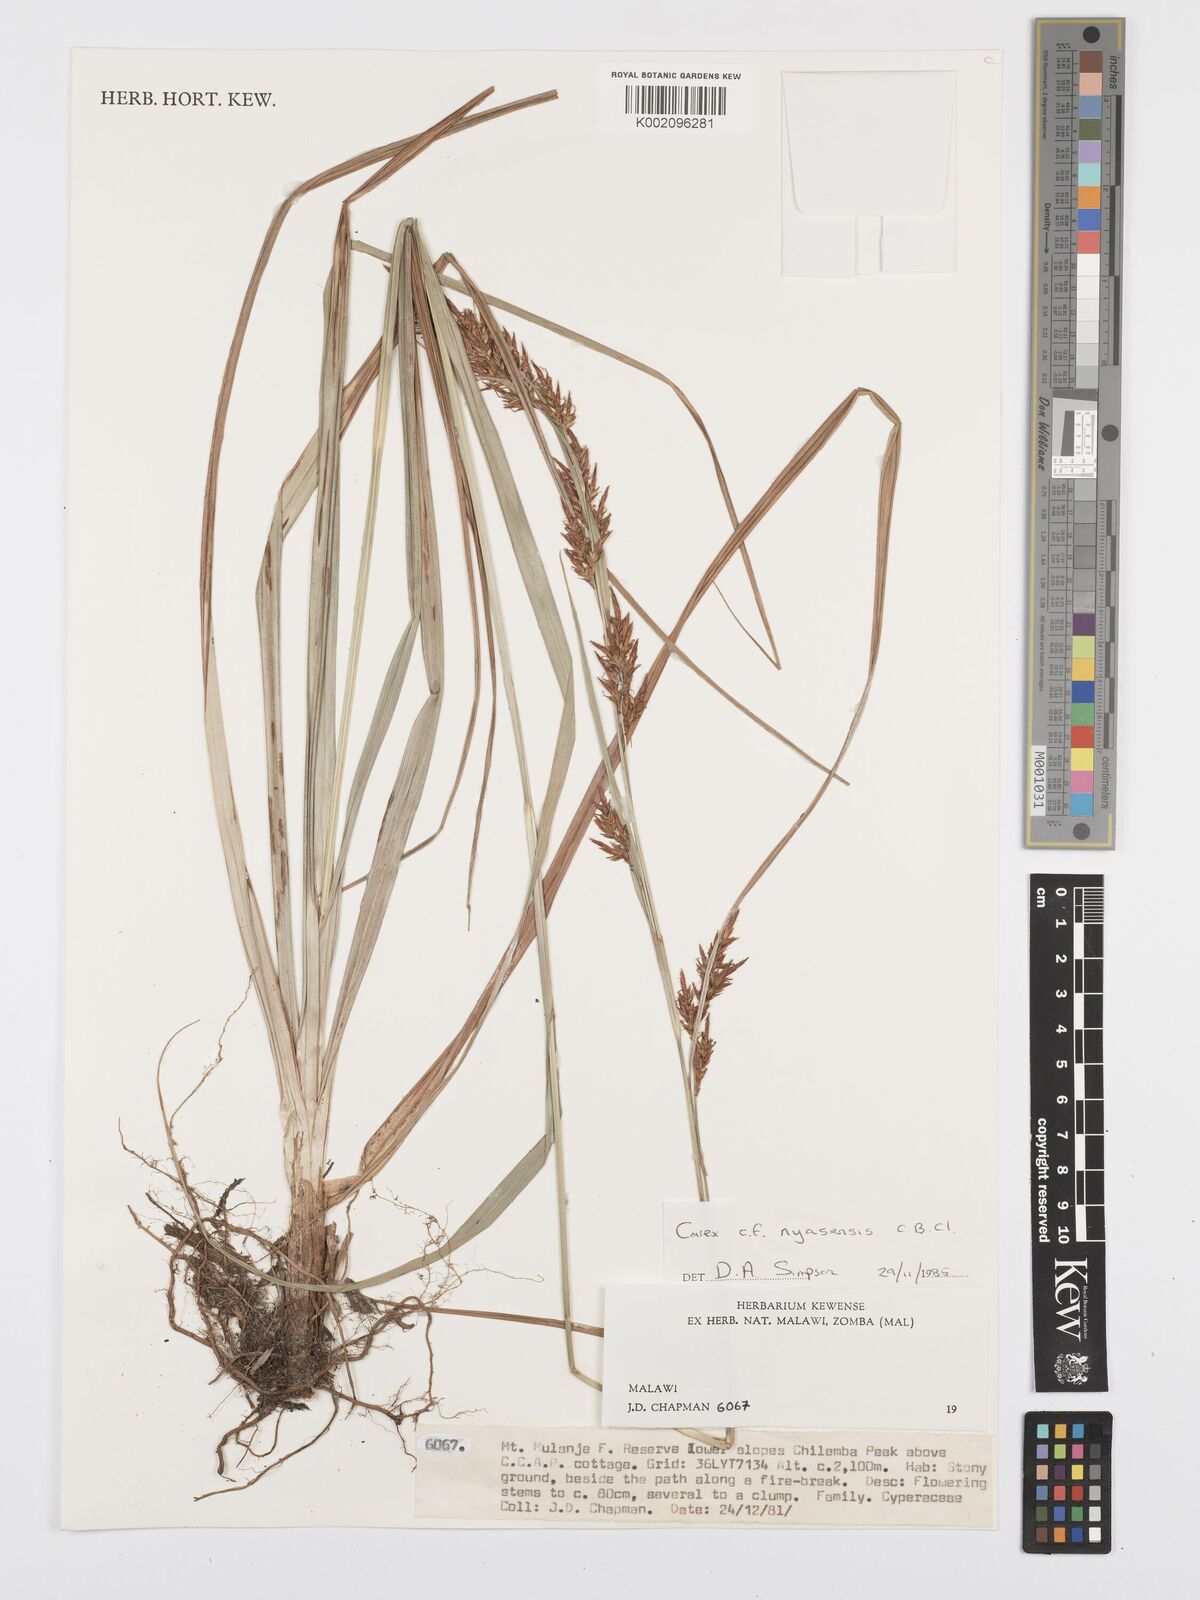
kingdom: Plantae
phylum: Tracheophyta
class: Liliopsida
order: Poales
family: Cyperaceae
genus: Carex
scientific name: Carex spicatopaniculata
